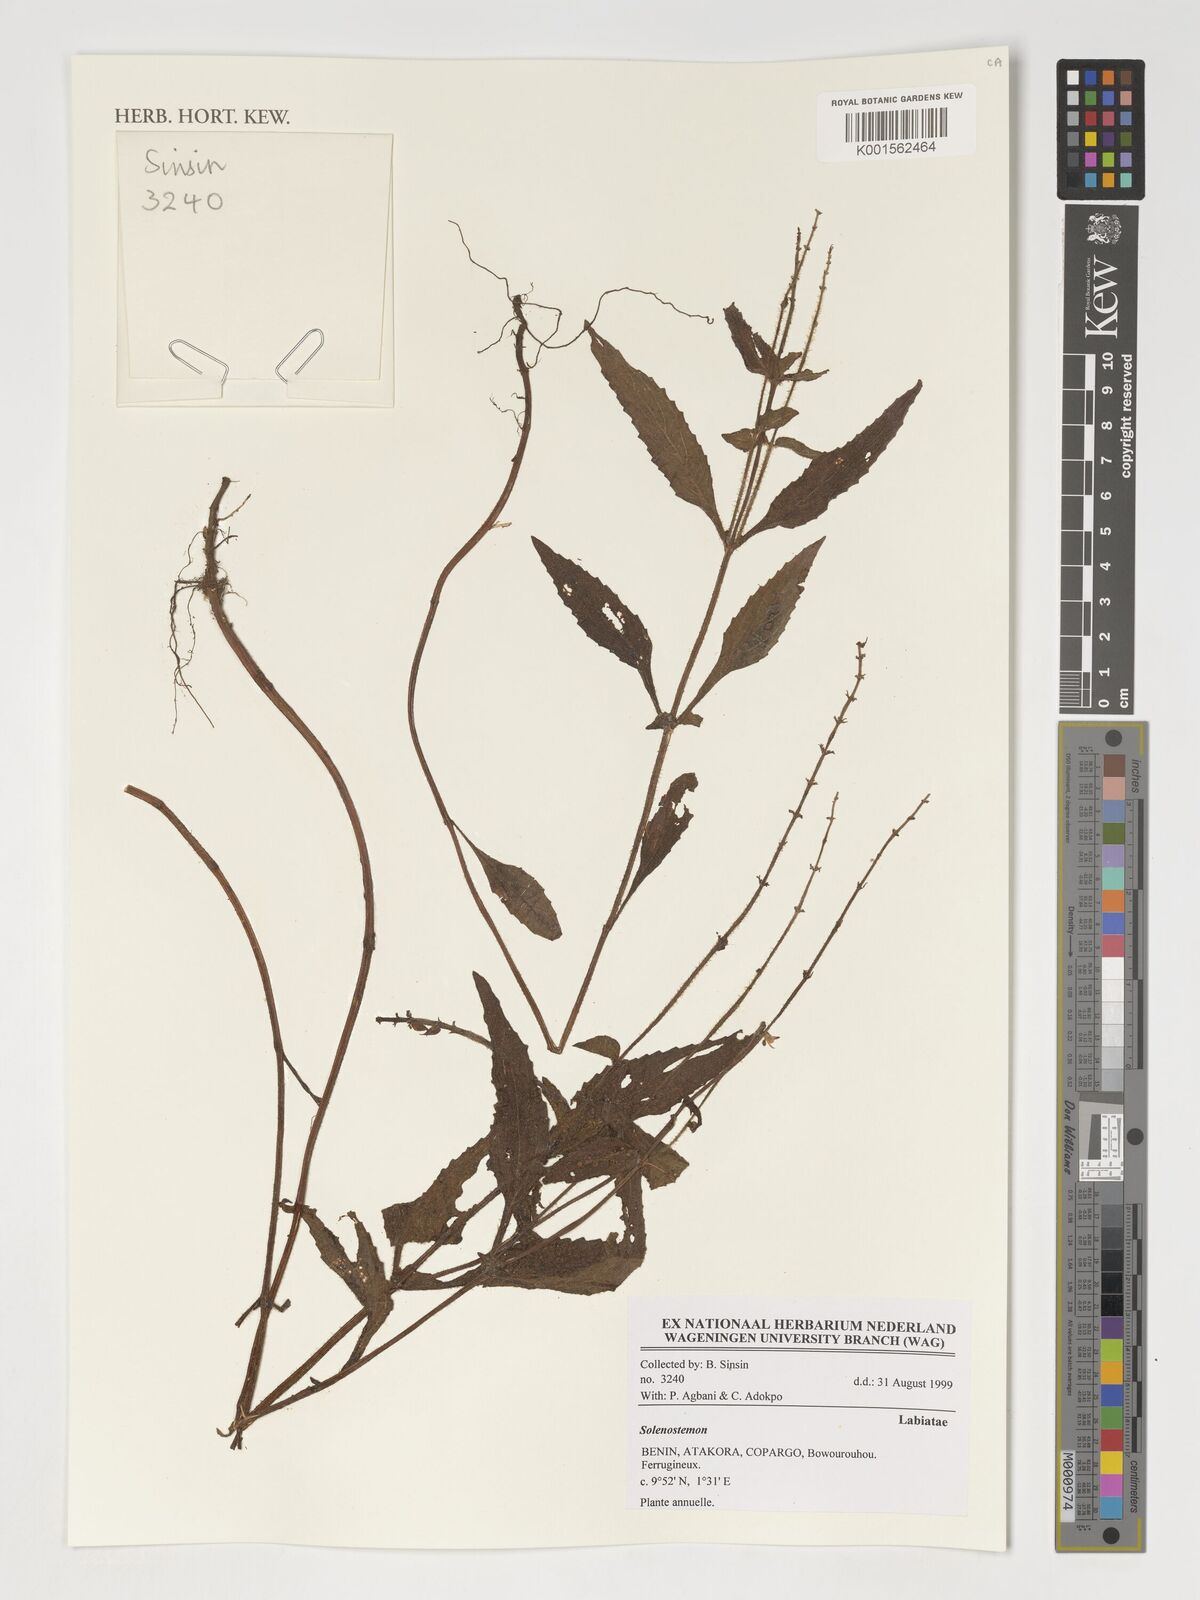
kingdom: Plantae
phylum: Tracheophyta
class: Magnoliopsida
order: Lamiales
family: Lamiaceae
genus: Coleus
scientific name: Coleus
